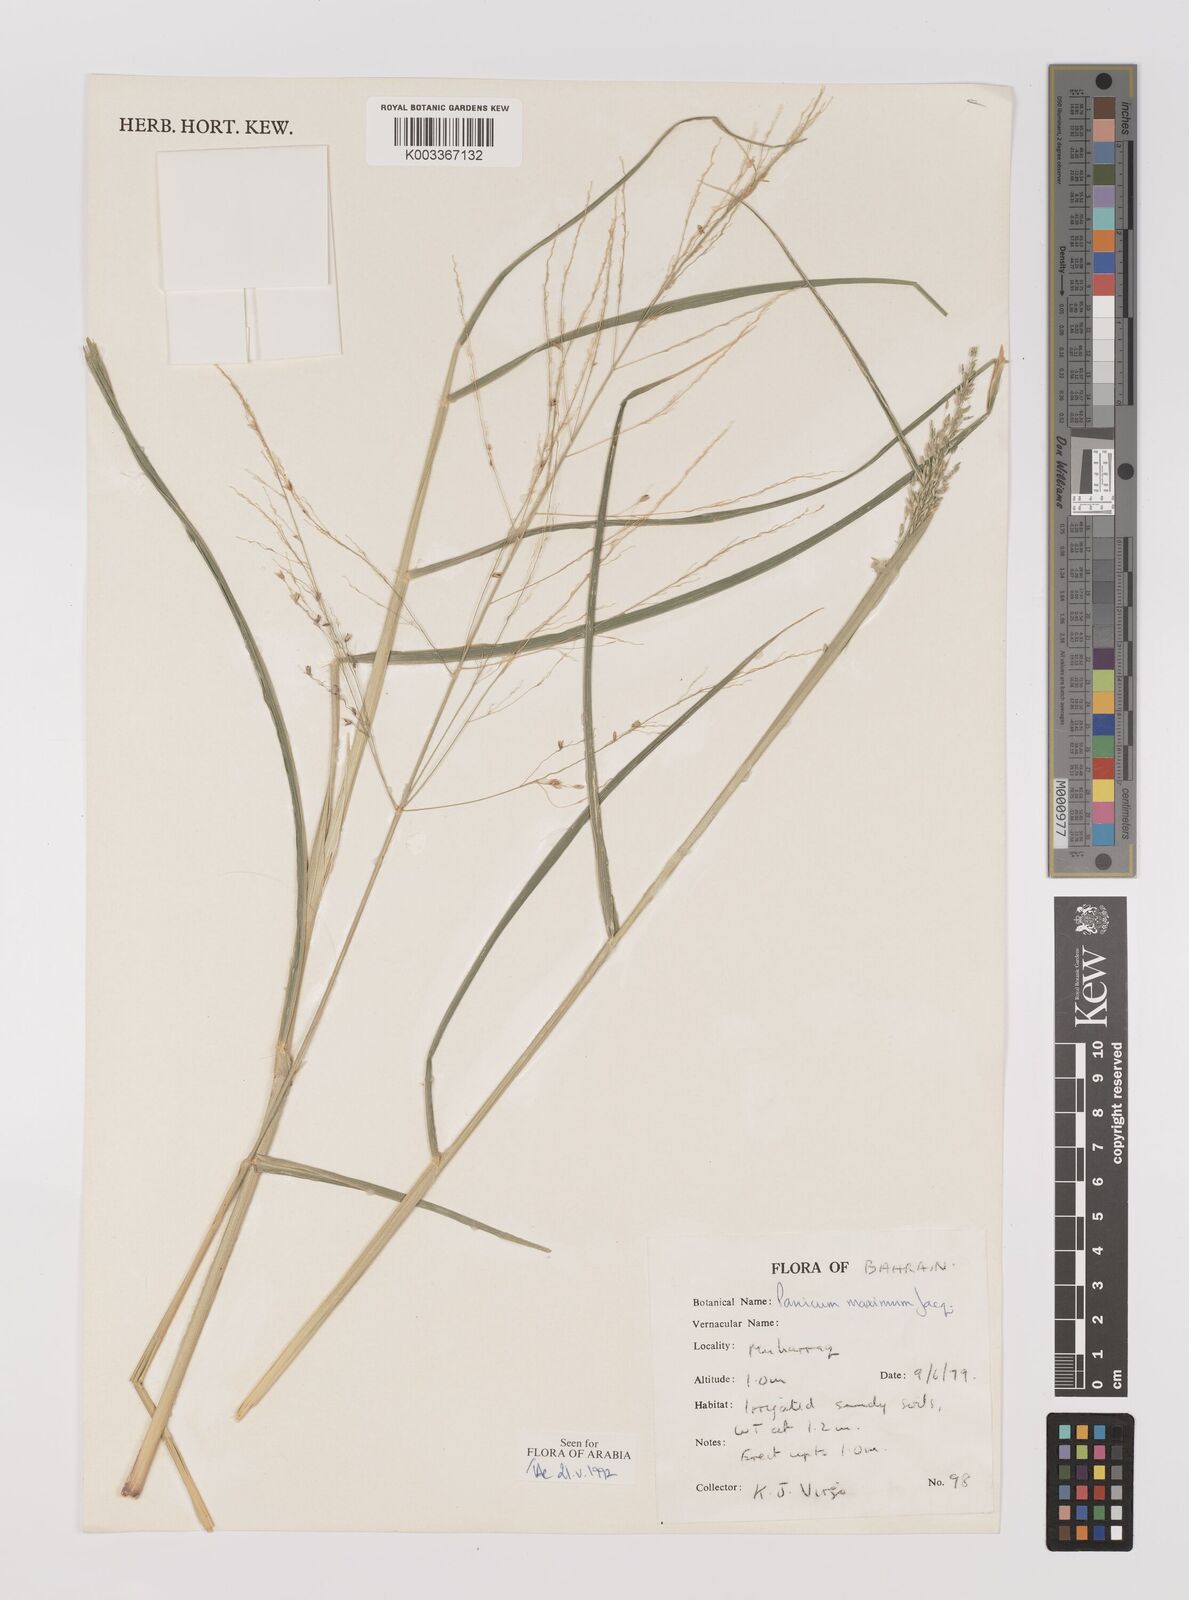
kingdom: Plantae
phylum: Tracheophyta
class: Liliopsida
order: Poales
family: Poaceae
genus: Megathyrsus
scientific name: Megathyrsus maximus
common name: Guineagrass
